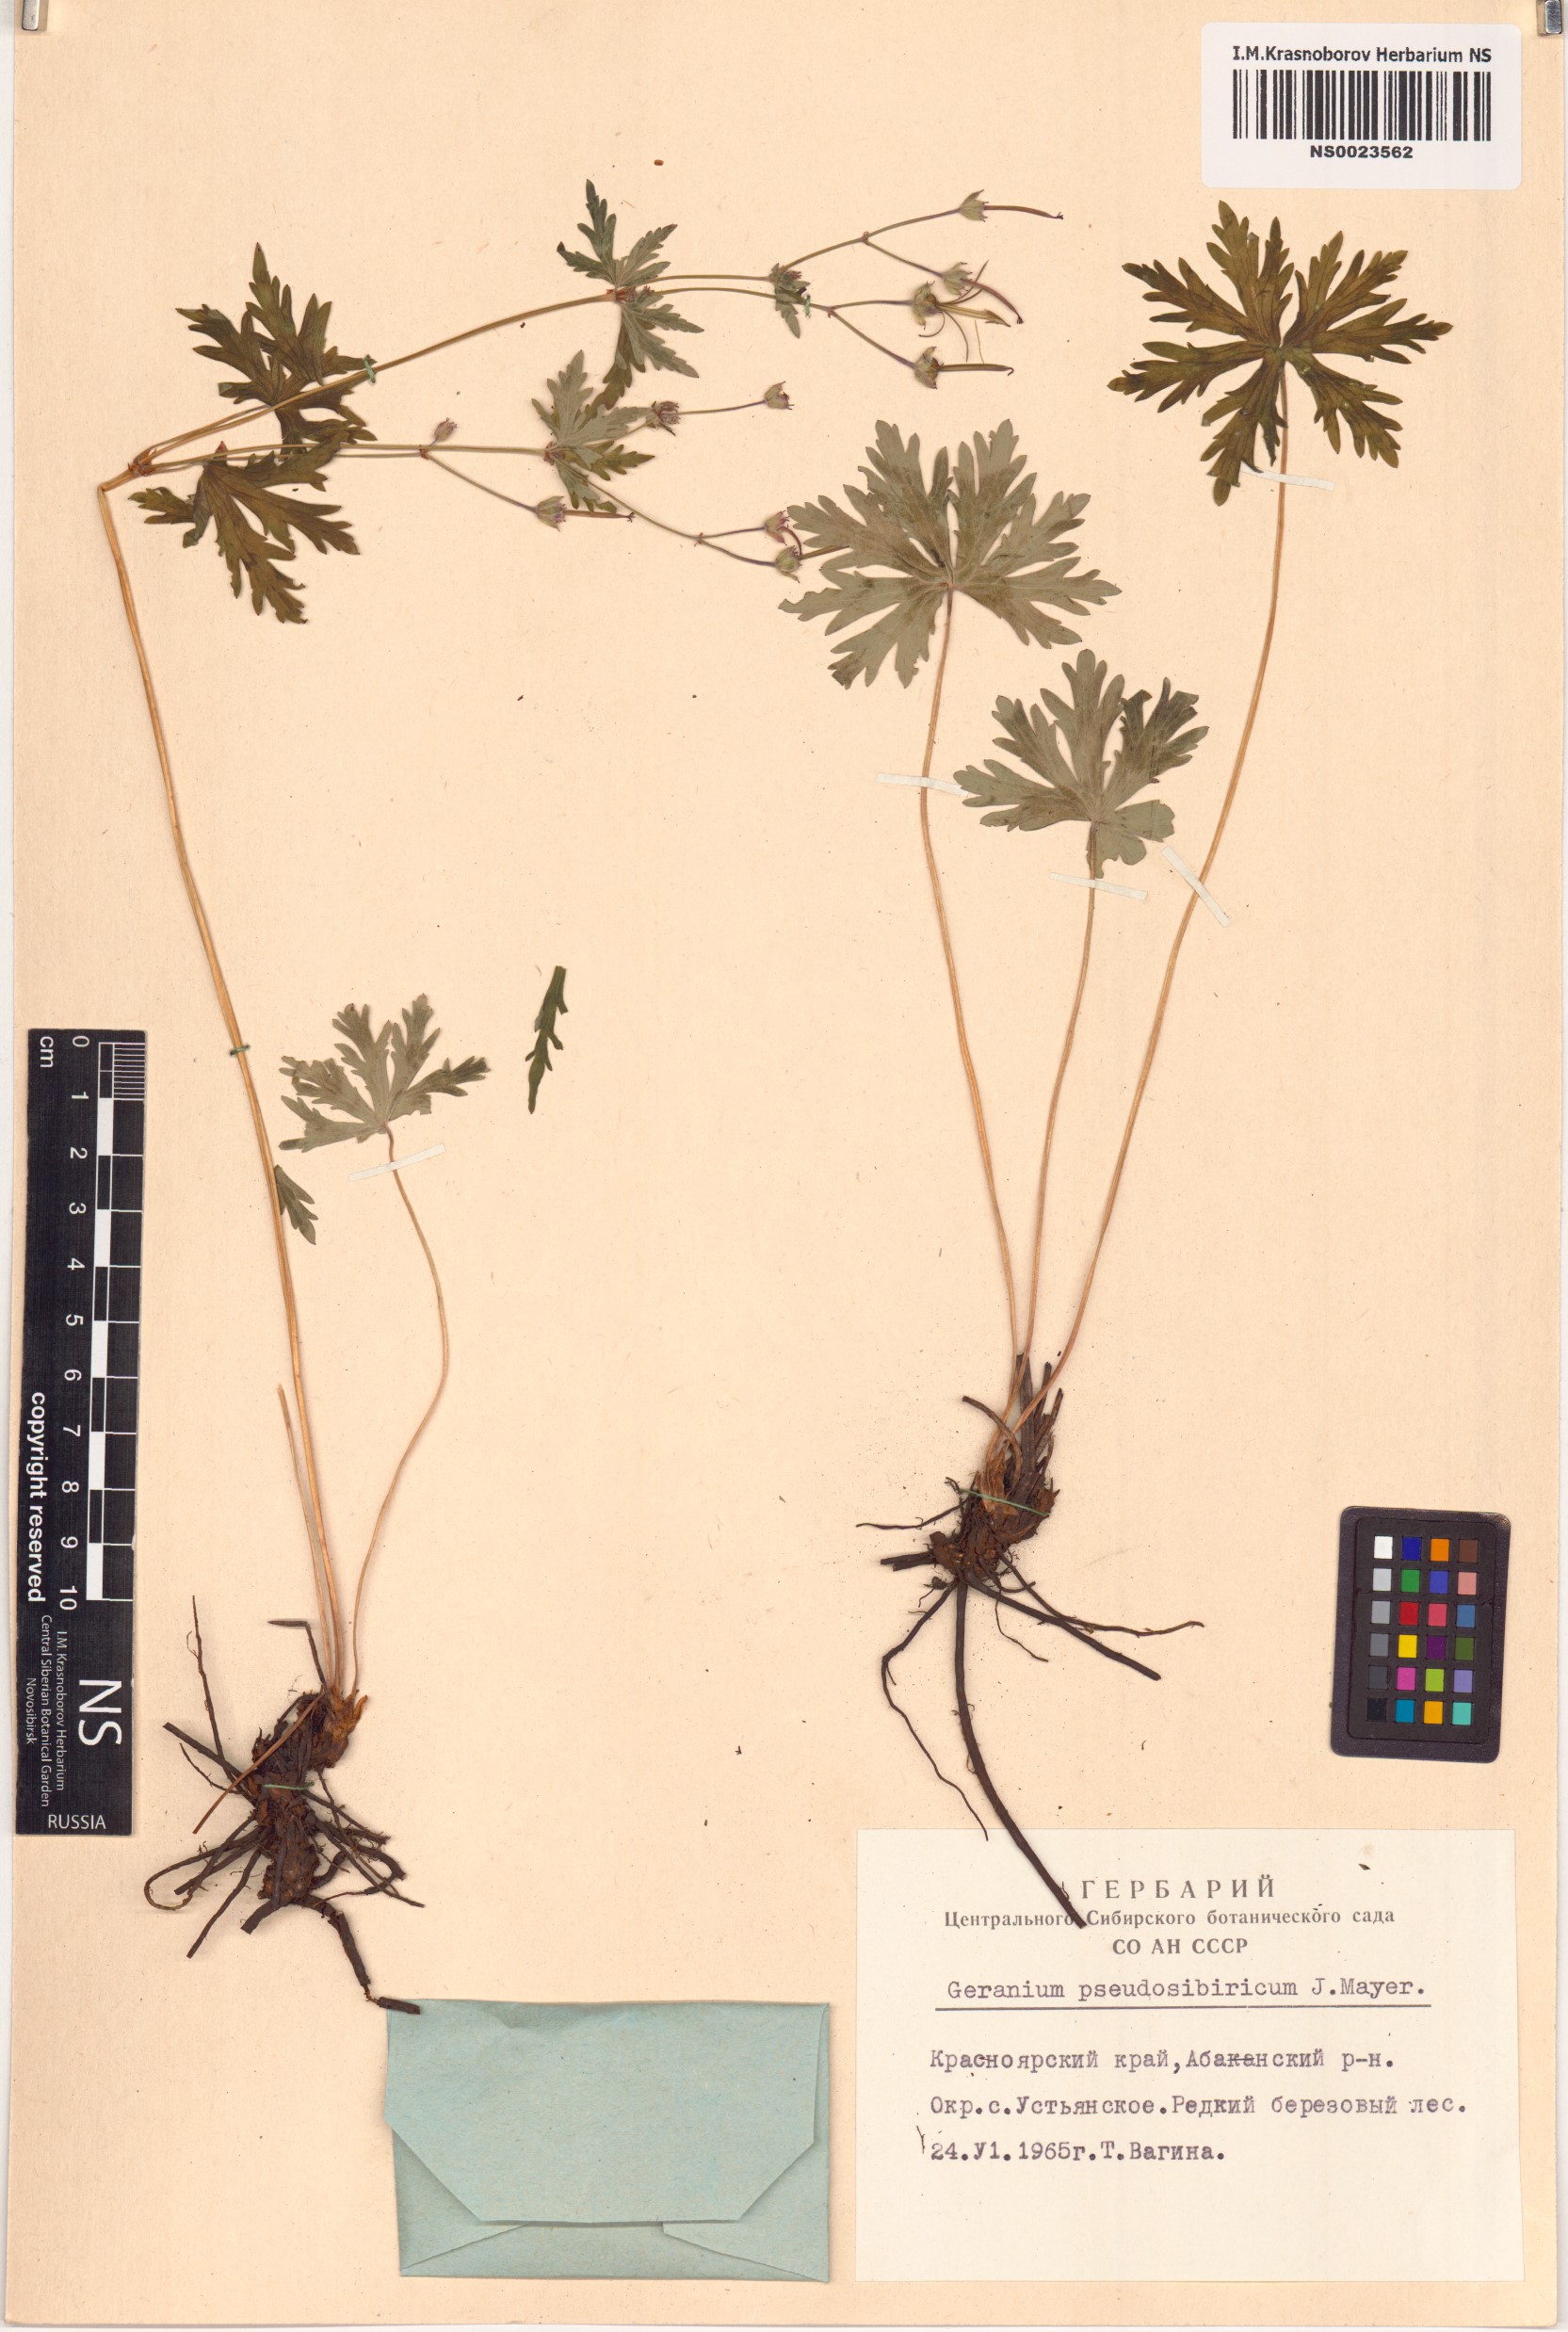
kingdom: Plantae
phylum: Tracheophyta
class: Magnoliopsida
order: Geraniales
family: Geraniaceae
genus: Geranium
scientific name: Geranium pseudosibiricum
